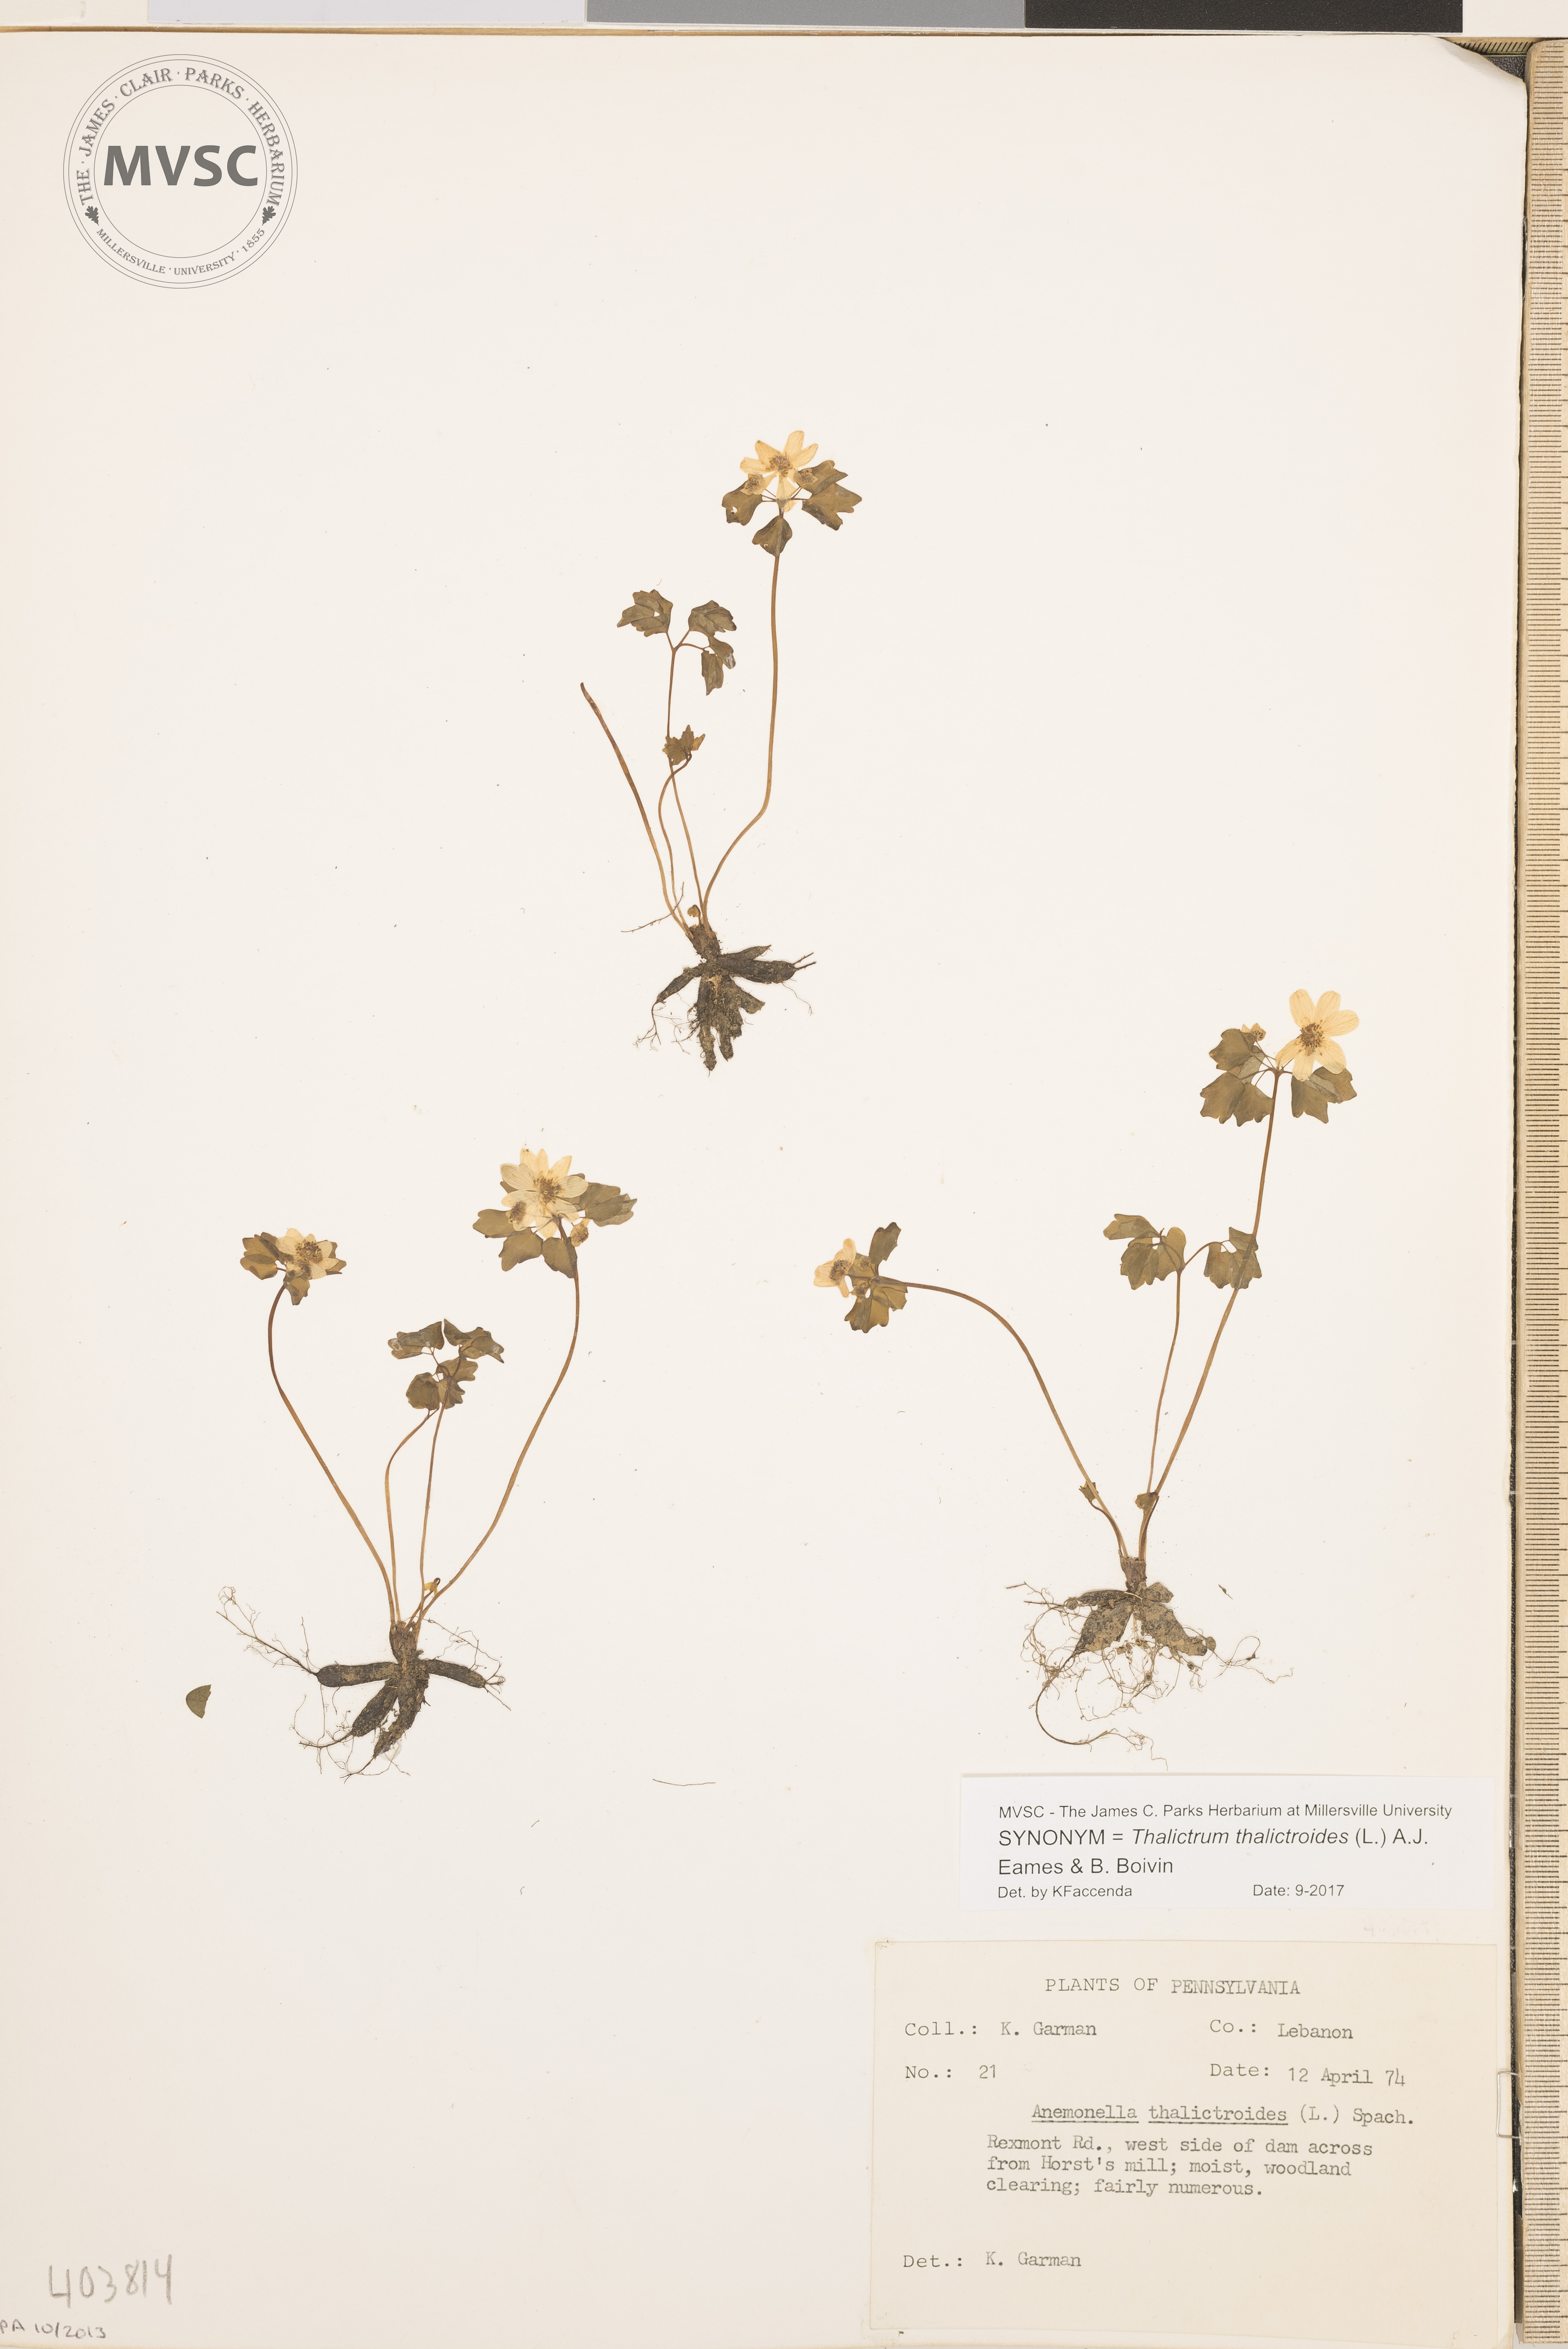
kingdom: Plantae
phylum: Tracheophyta
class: Magnoliopsida
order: Ranunculales
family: Ranunculaceae
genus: Thalictrum
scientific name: Thalictrum thalictroides
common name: Rue anemone
